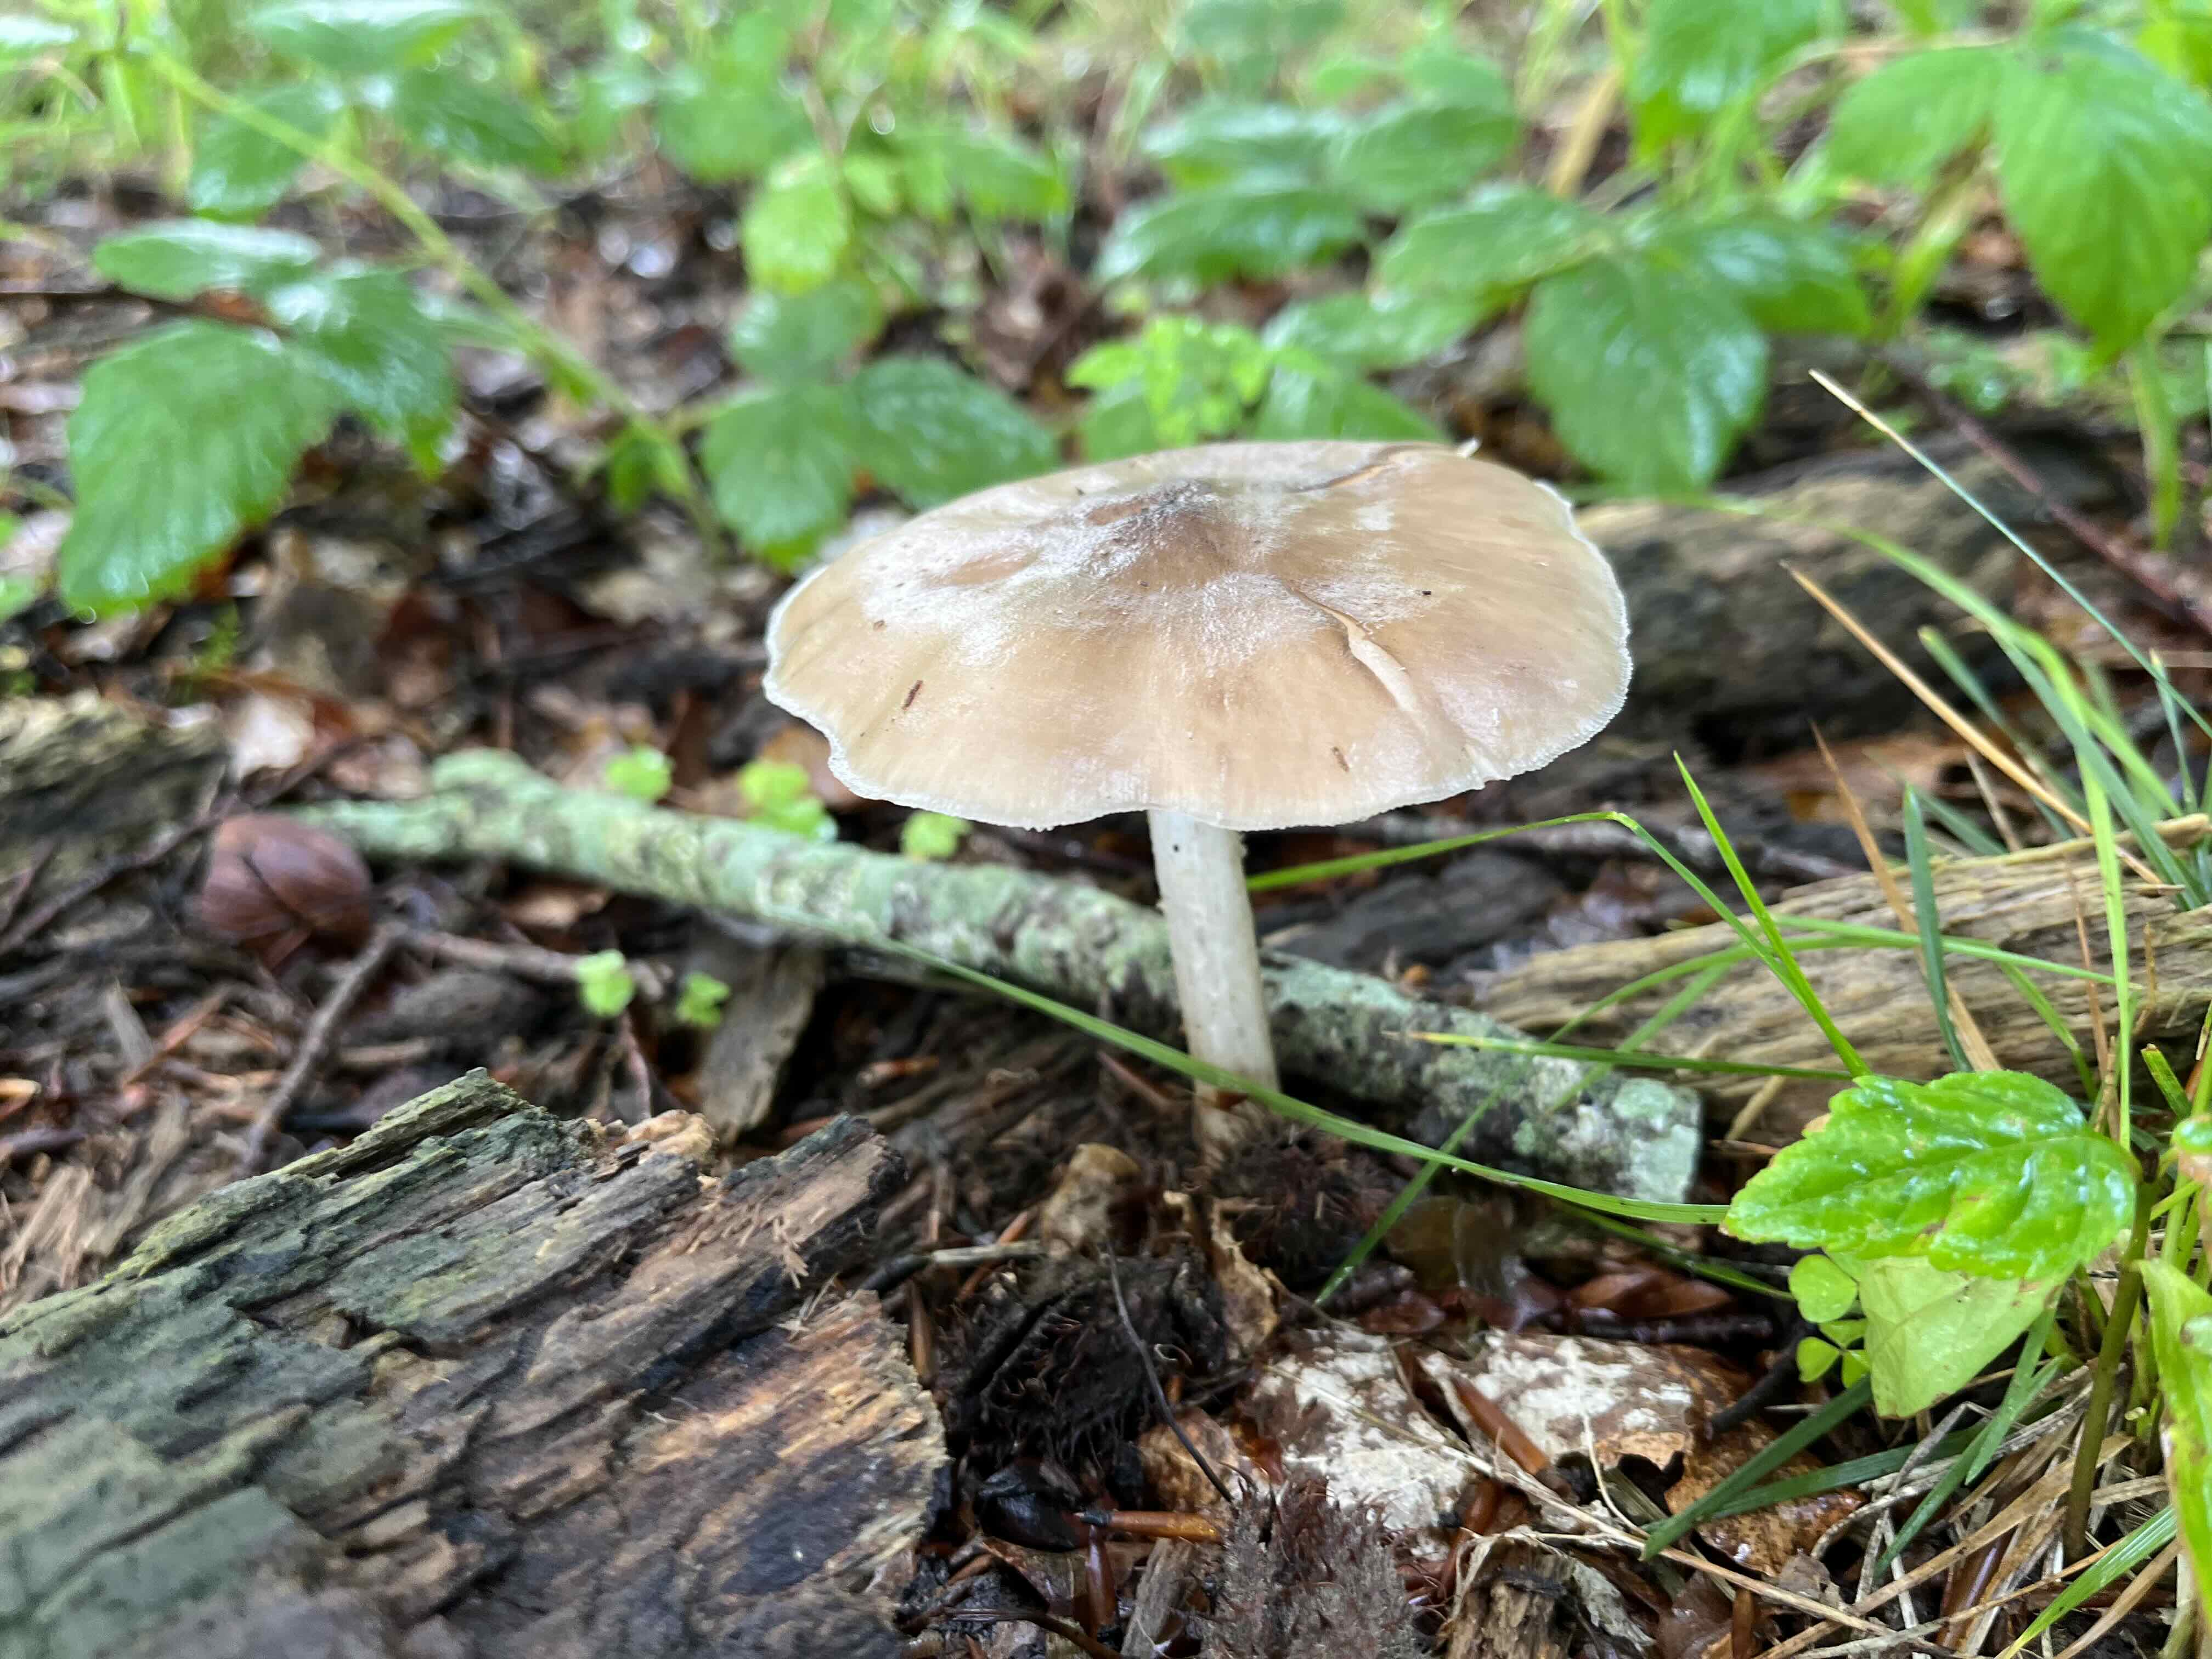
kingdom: Fungi
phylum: Basidiomycota
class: Agaricomycetes
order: Agaricales
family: Pluteaceae
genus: Pluteus
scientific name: Pluteus cervinus
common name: sodfarvet skærmhat
